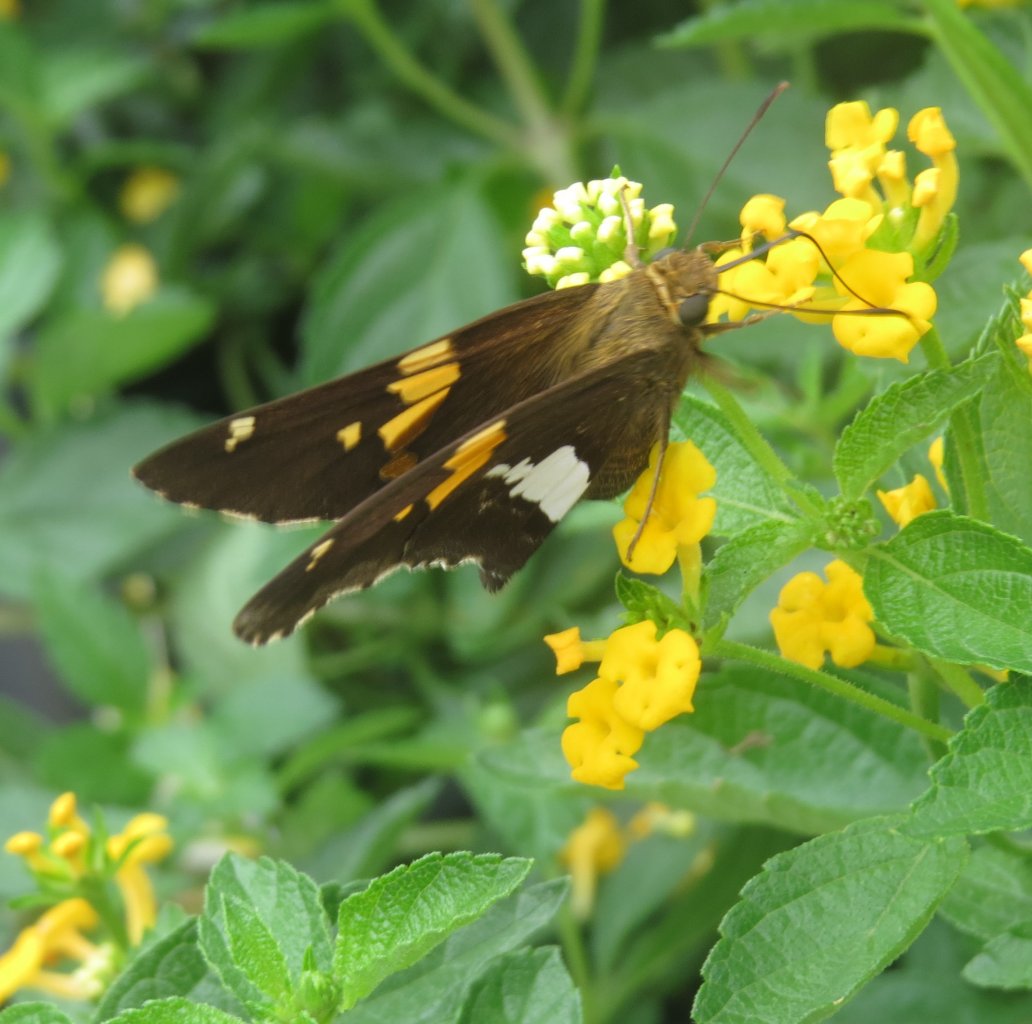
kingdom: Animalia
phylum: Arthropoda
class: Insecta
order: Lepidoptera
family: Hesperiidae
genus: Epargyreus
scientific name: Epargyreus clarus
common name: Silver-spotted Skipper
